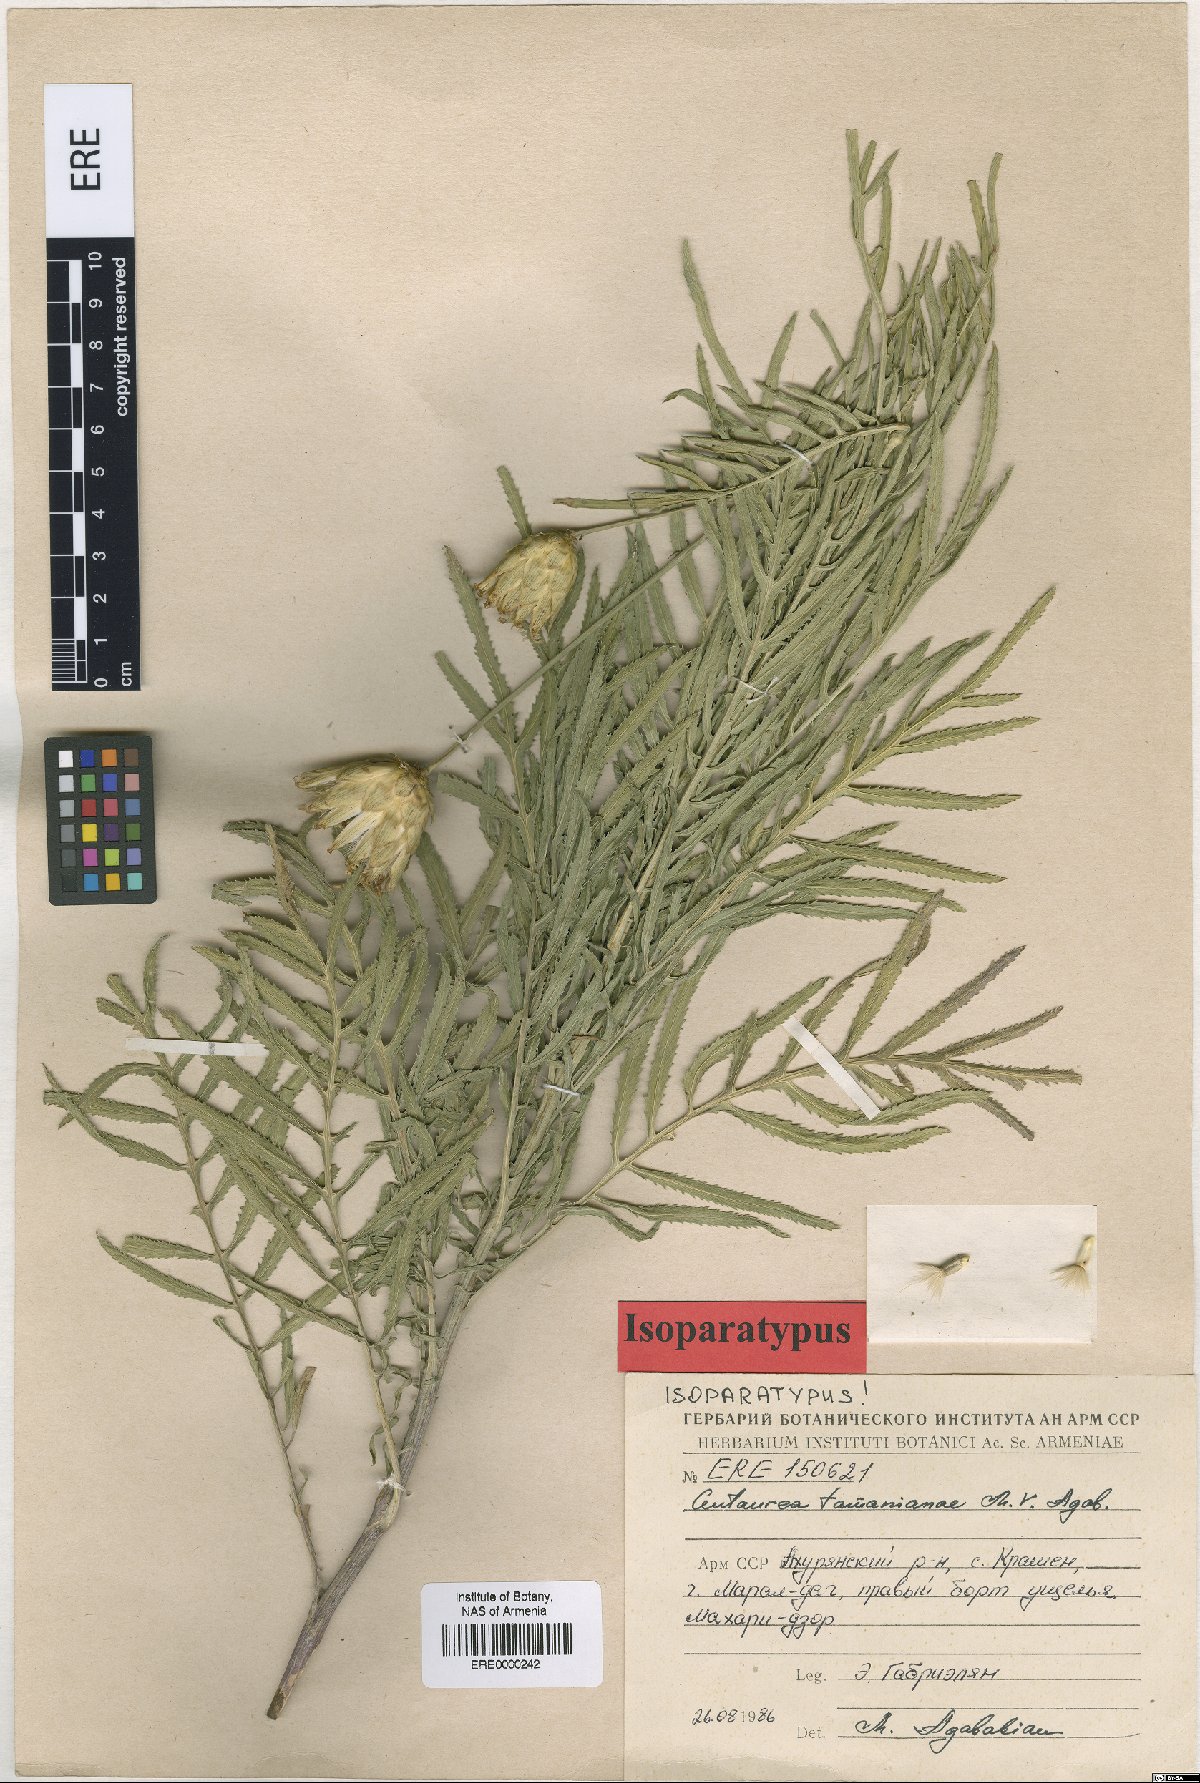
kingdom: Plantae
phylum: Tracheophyta
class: Magnoliopsida
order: Asterales
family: Asteraceae
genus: Rhaponticoides
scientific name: Rhaponticoides tamanianae
